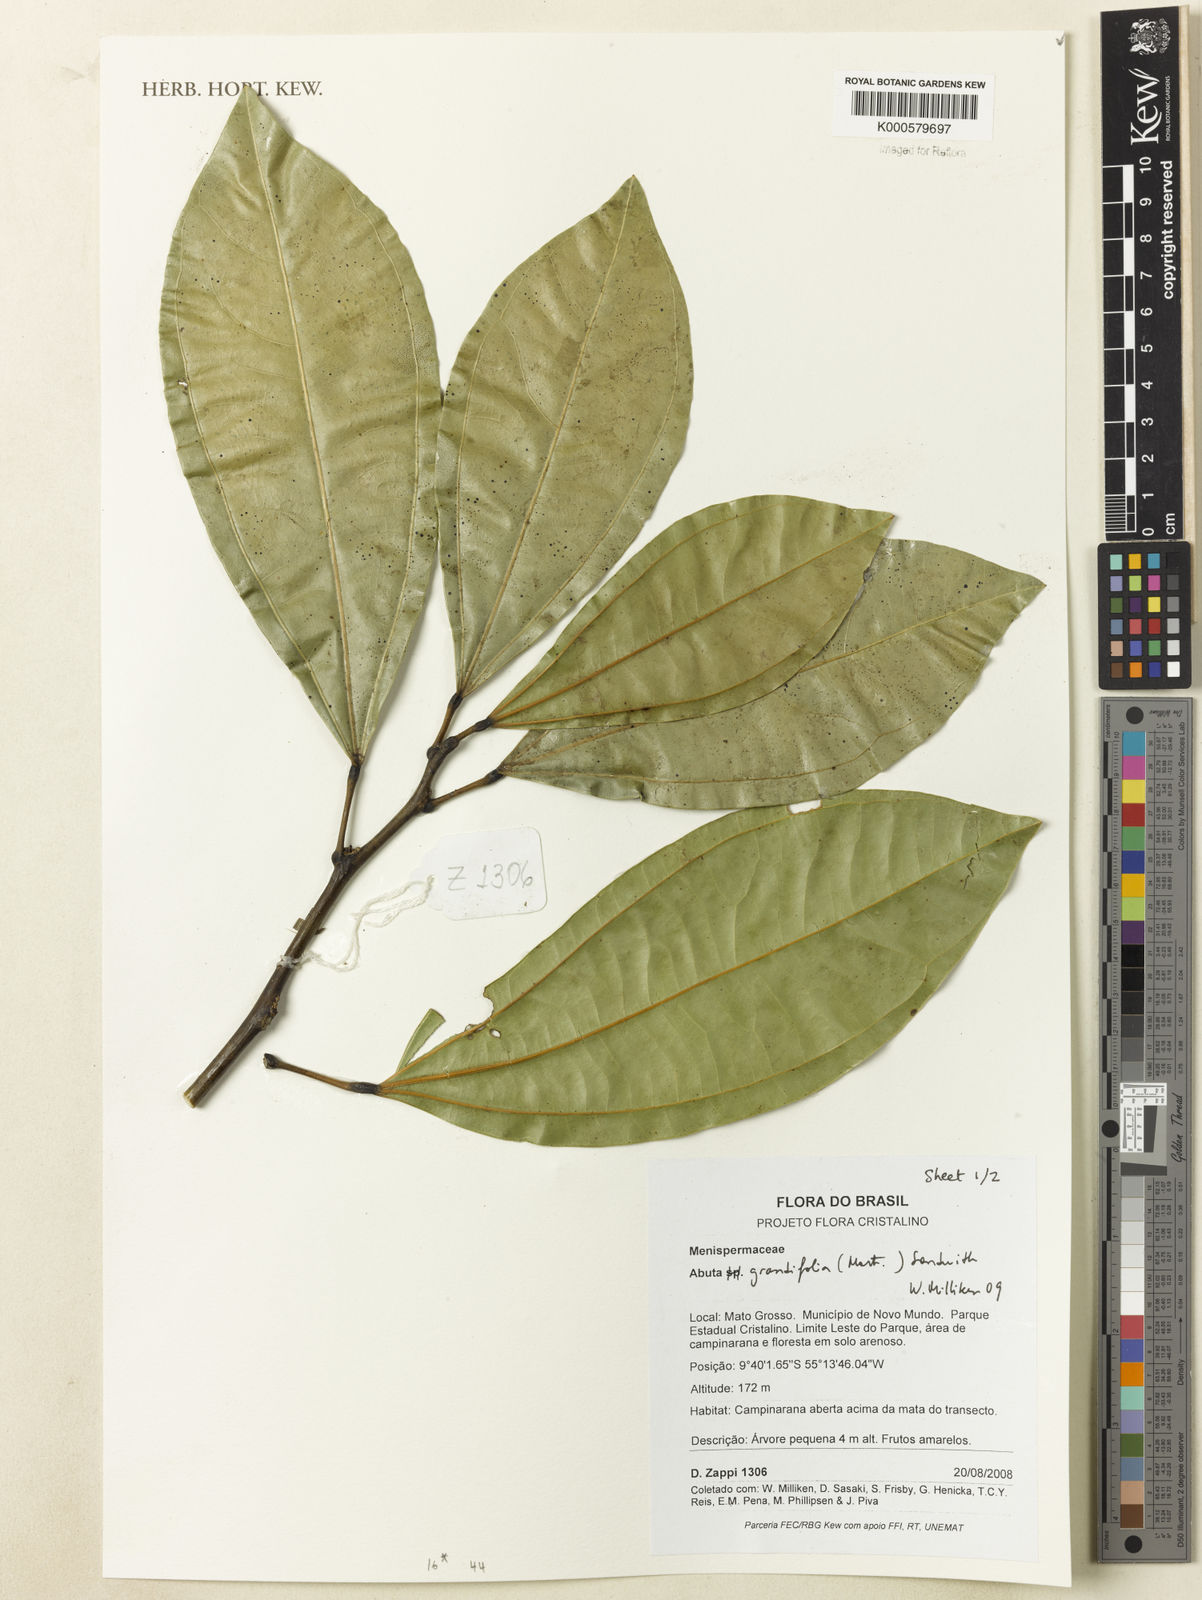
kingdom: Plantae
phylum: Tracheophyta
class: Magnoliopsida
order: Ranunculales
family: Menispermaceae
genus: Abuta
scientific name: Abuta grandifolia
